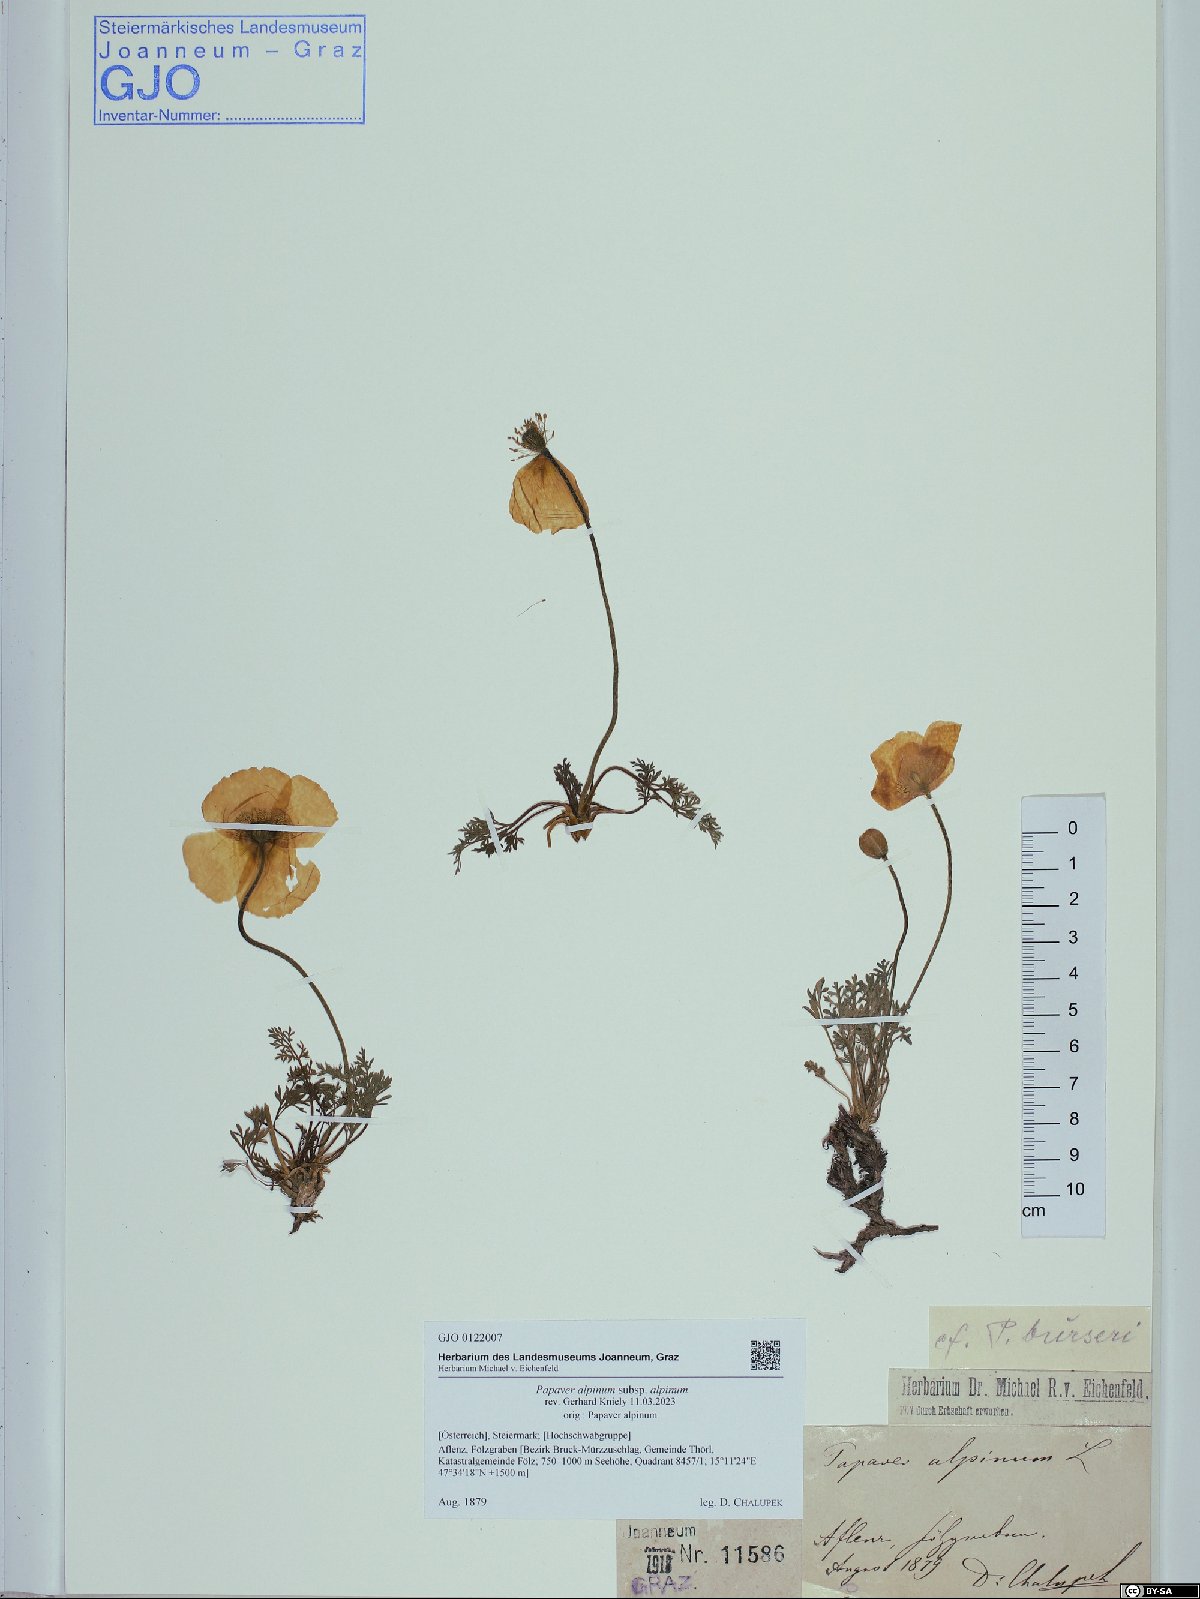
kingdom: Plantae
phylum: Tracheophyta
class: Magnoliopsida
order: Ranunculales
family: Papaveraceae
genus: Papaver
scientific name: Papaver alpinum
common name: Austrian poppy
